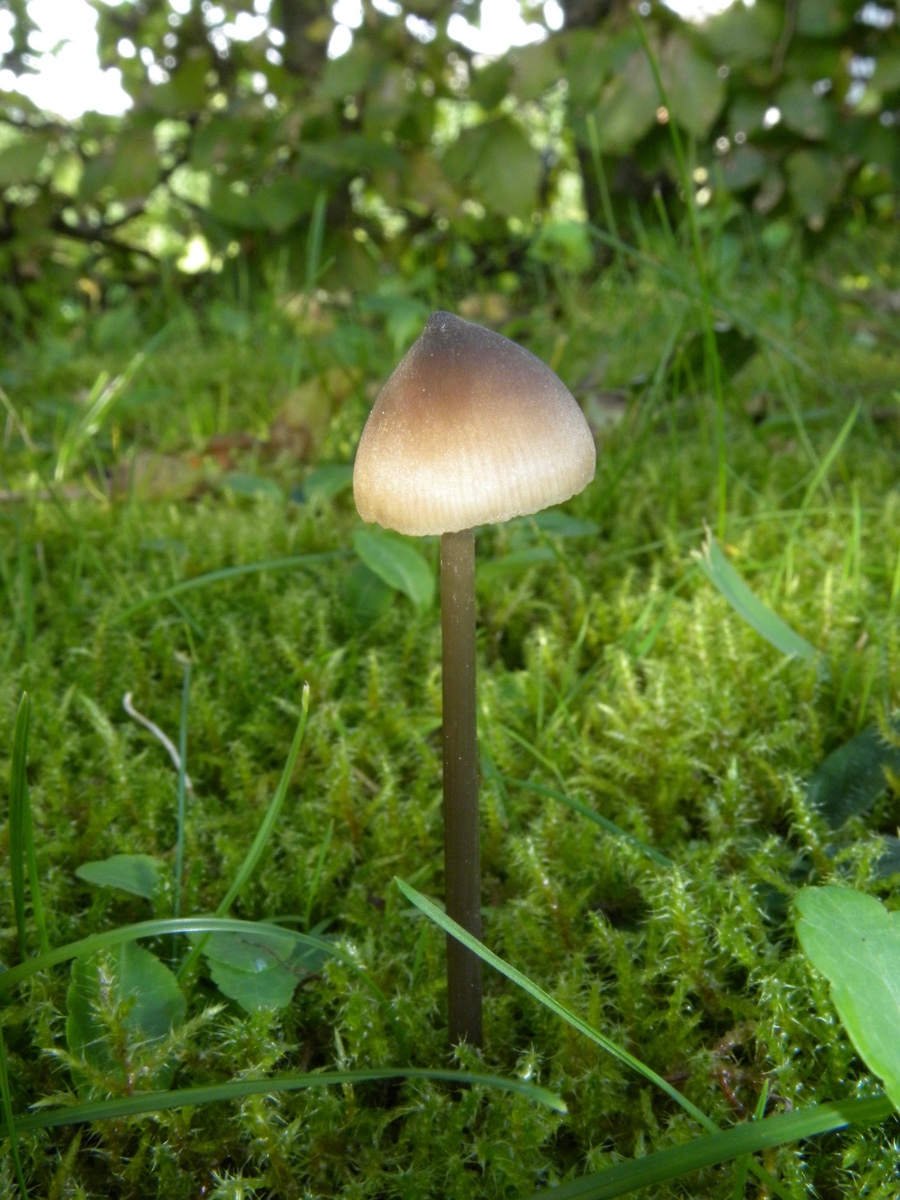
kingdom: Fungi
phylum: Basidiomycota
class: Agaricomycetes
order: Agaricales
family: Entolomataceae
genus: Entoloma
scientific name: Entoloma hebes
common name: krat-rødblad
